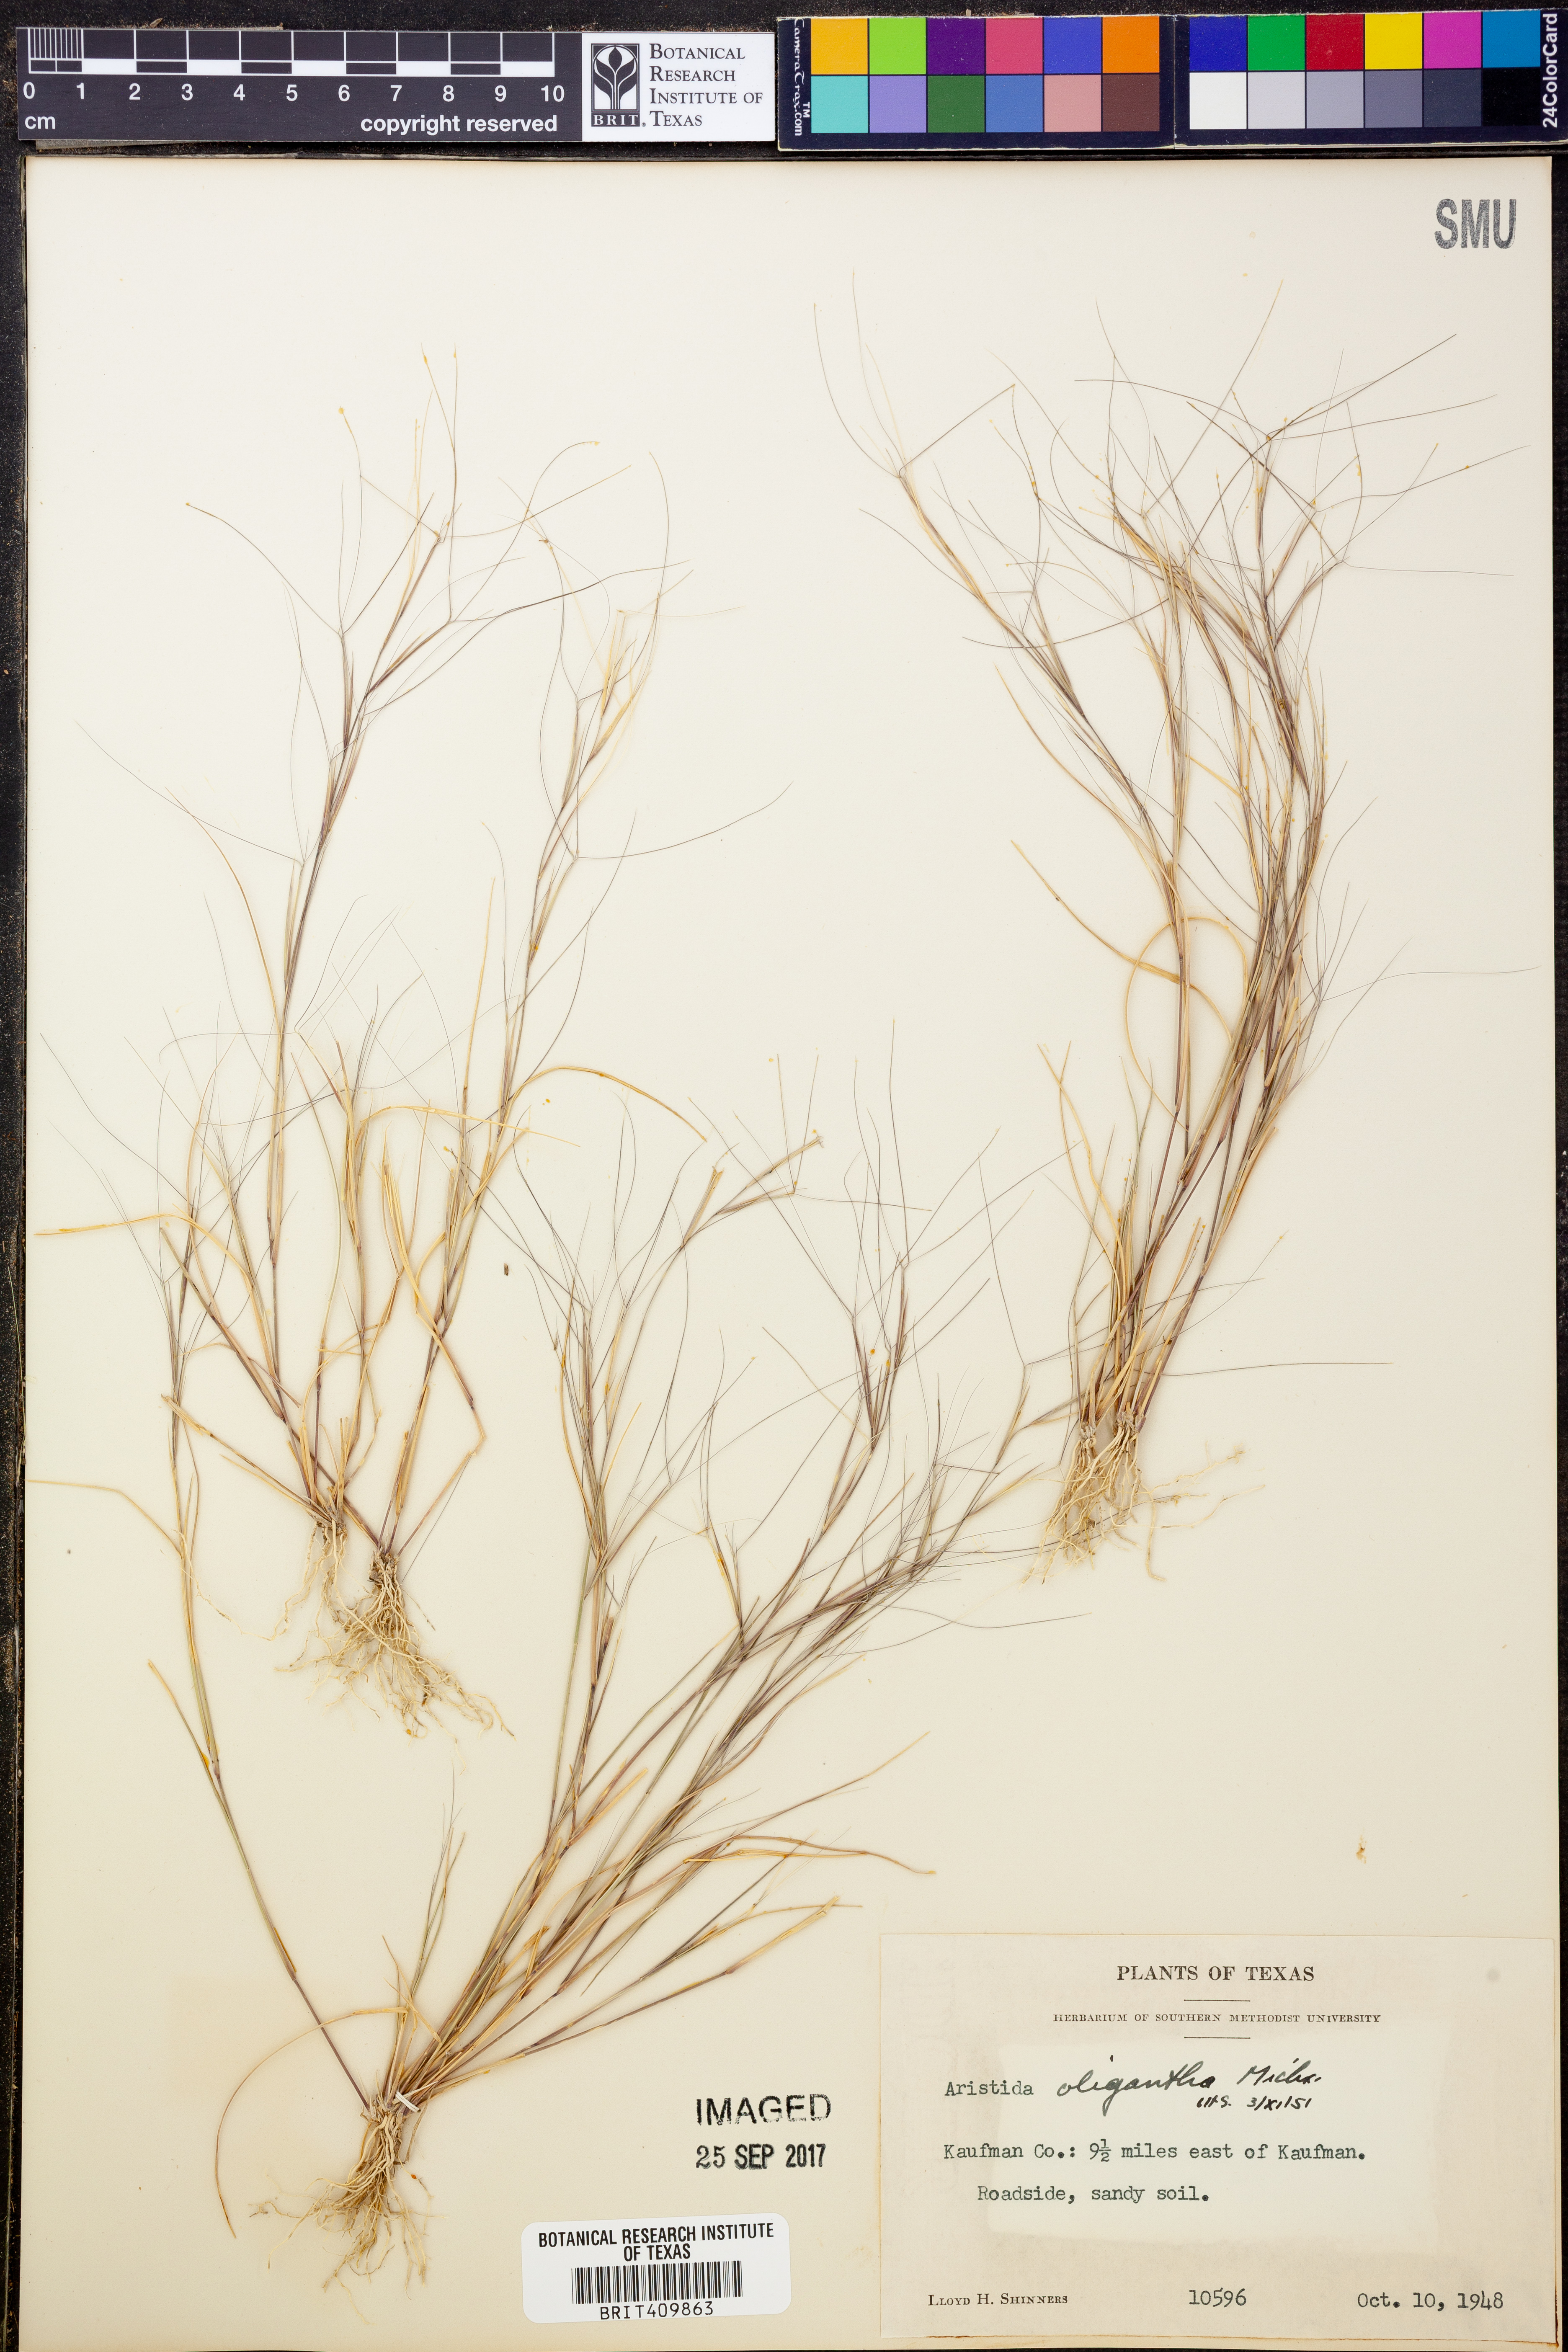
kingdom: Plantae
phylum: Tracheophyta
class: Liliopsida
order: Poales
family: Poaceae
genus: Aristida
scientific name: Aristida oligantha
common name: Few-flowered aristida
